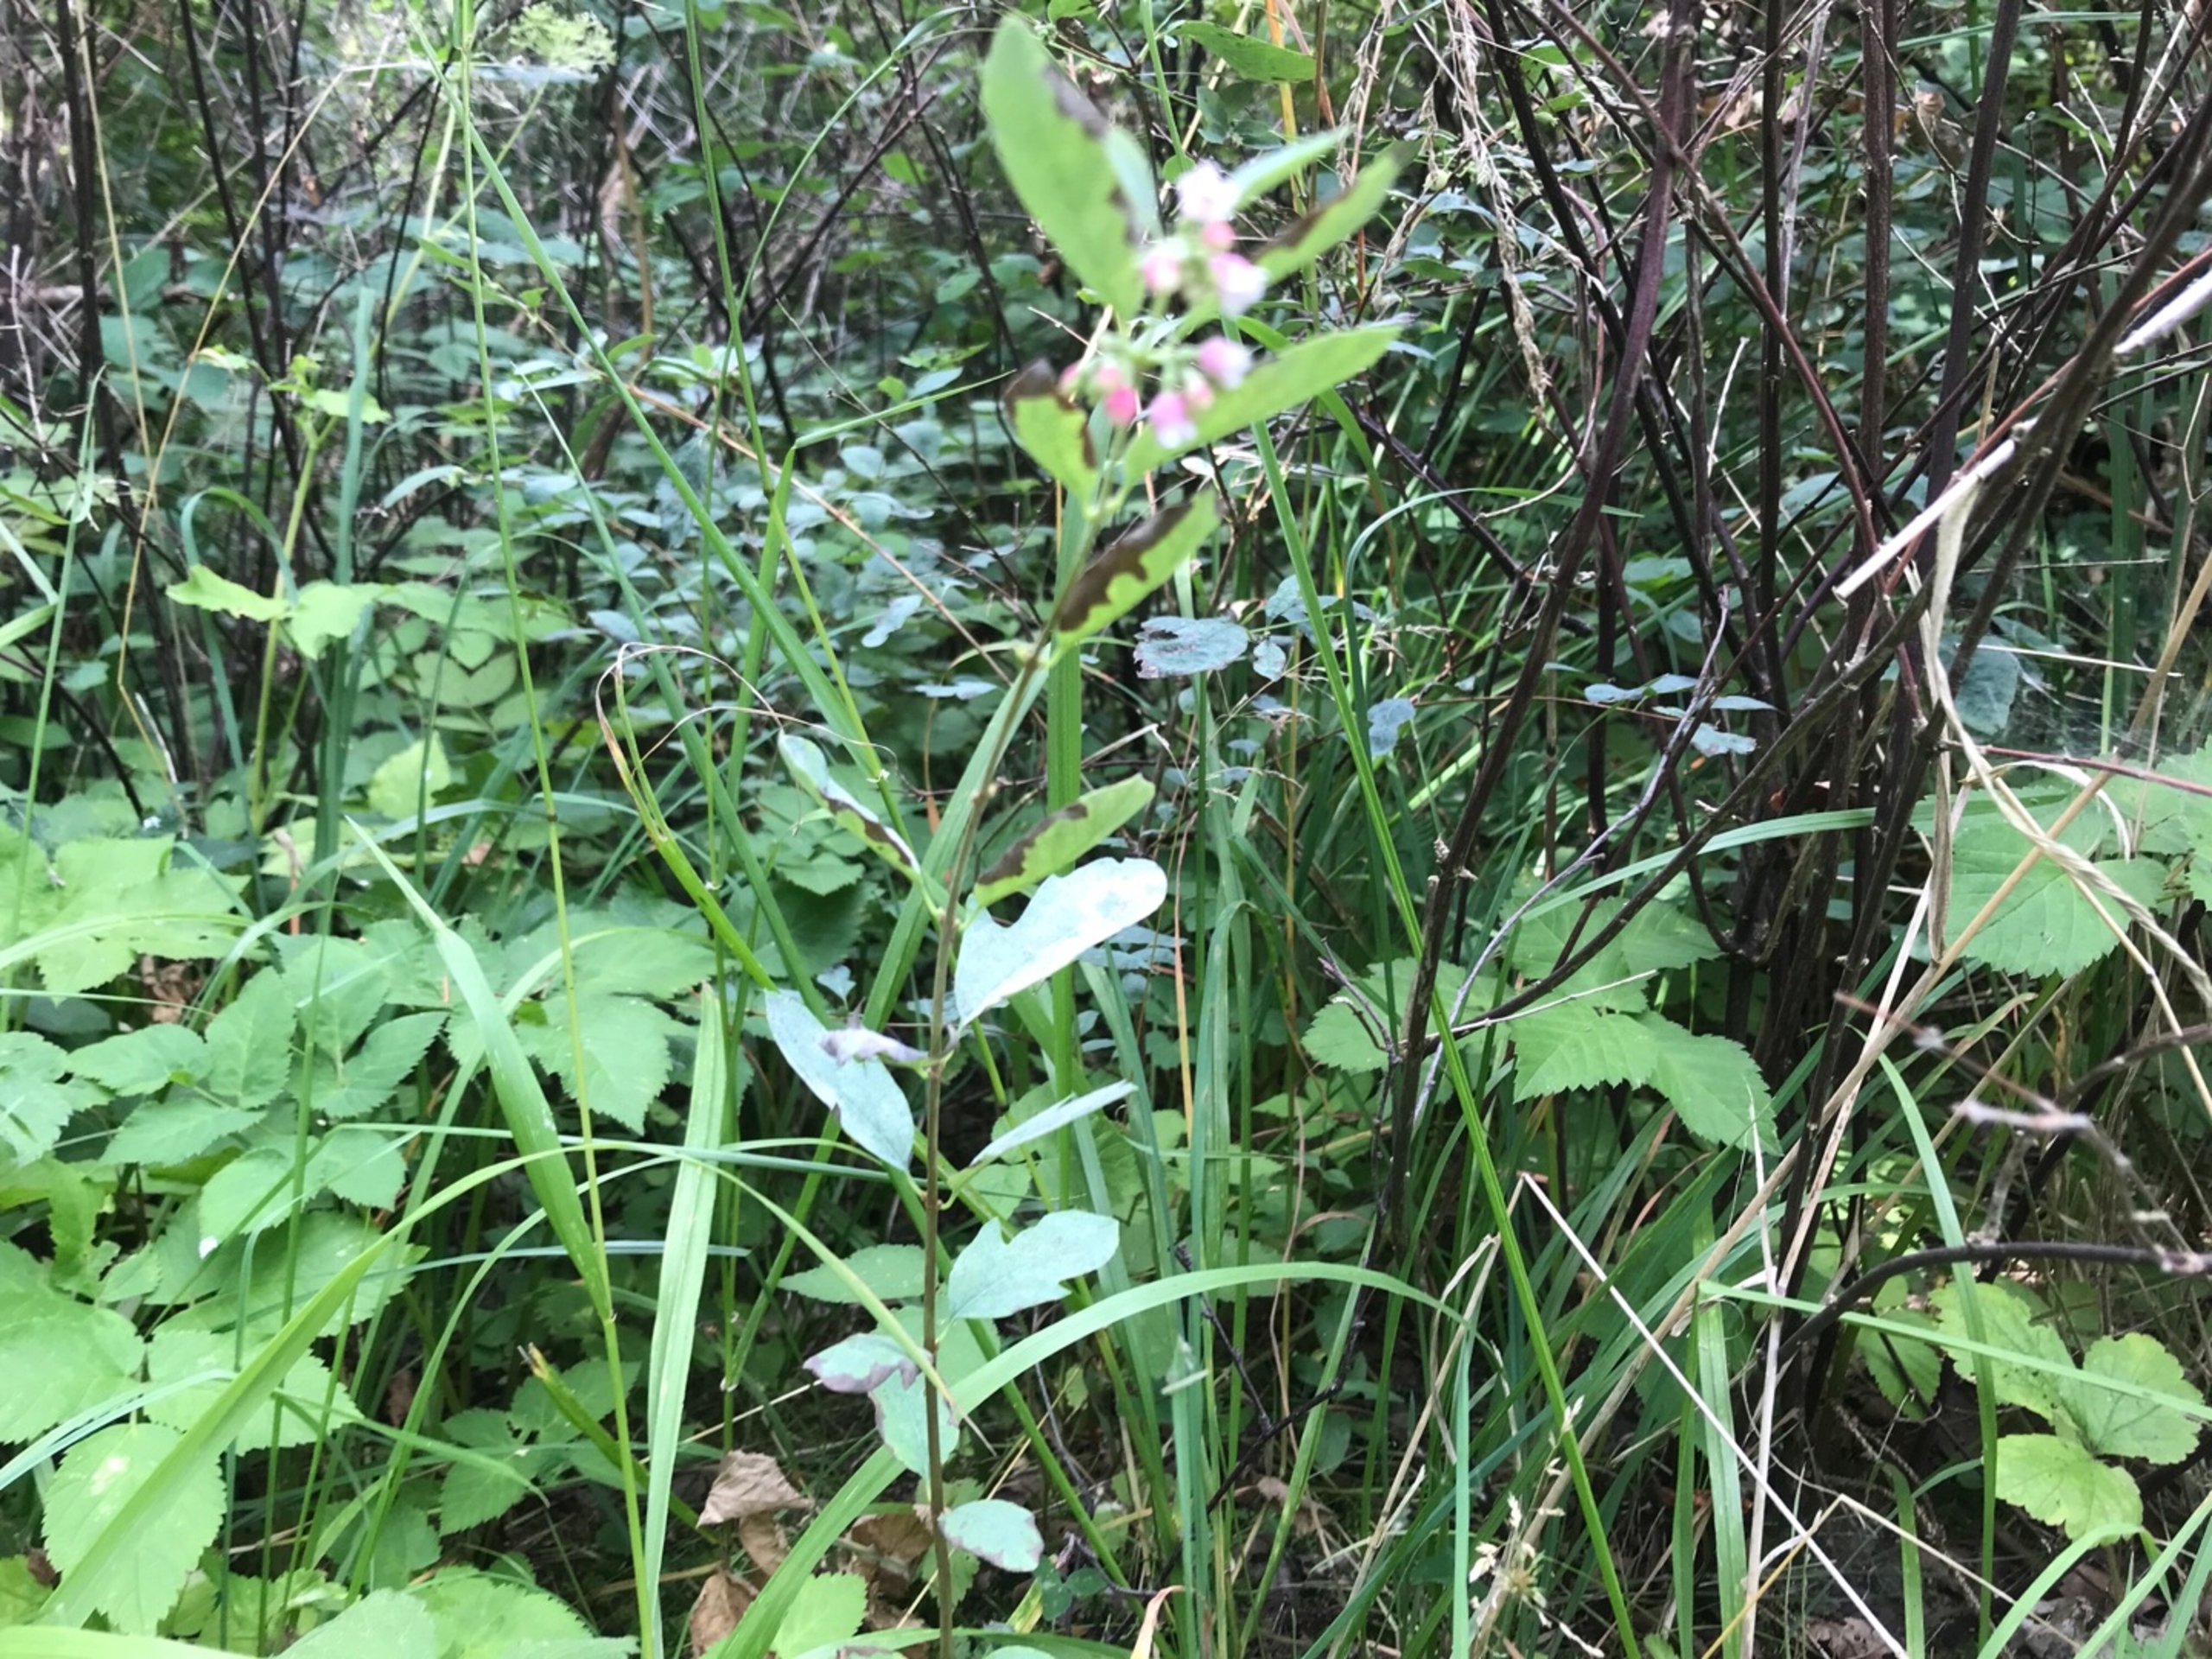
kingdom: Plantae
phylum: Tracheophyta
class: Magnoliopsida
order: Dipsacales
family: Caprifoliaceae
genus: Symphoricarpos
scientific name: Symphoricarpos albus
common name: Almindelig snebær
